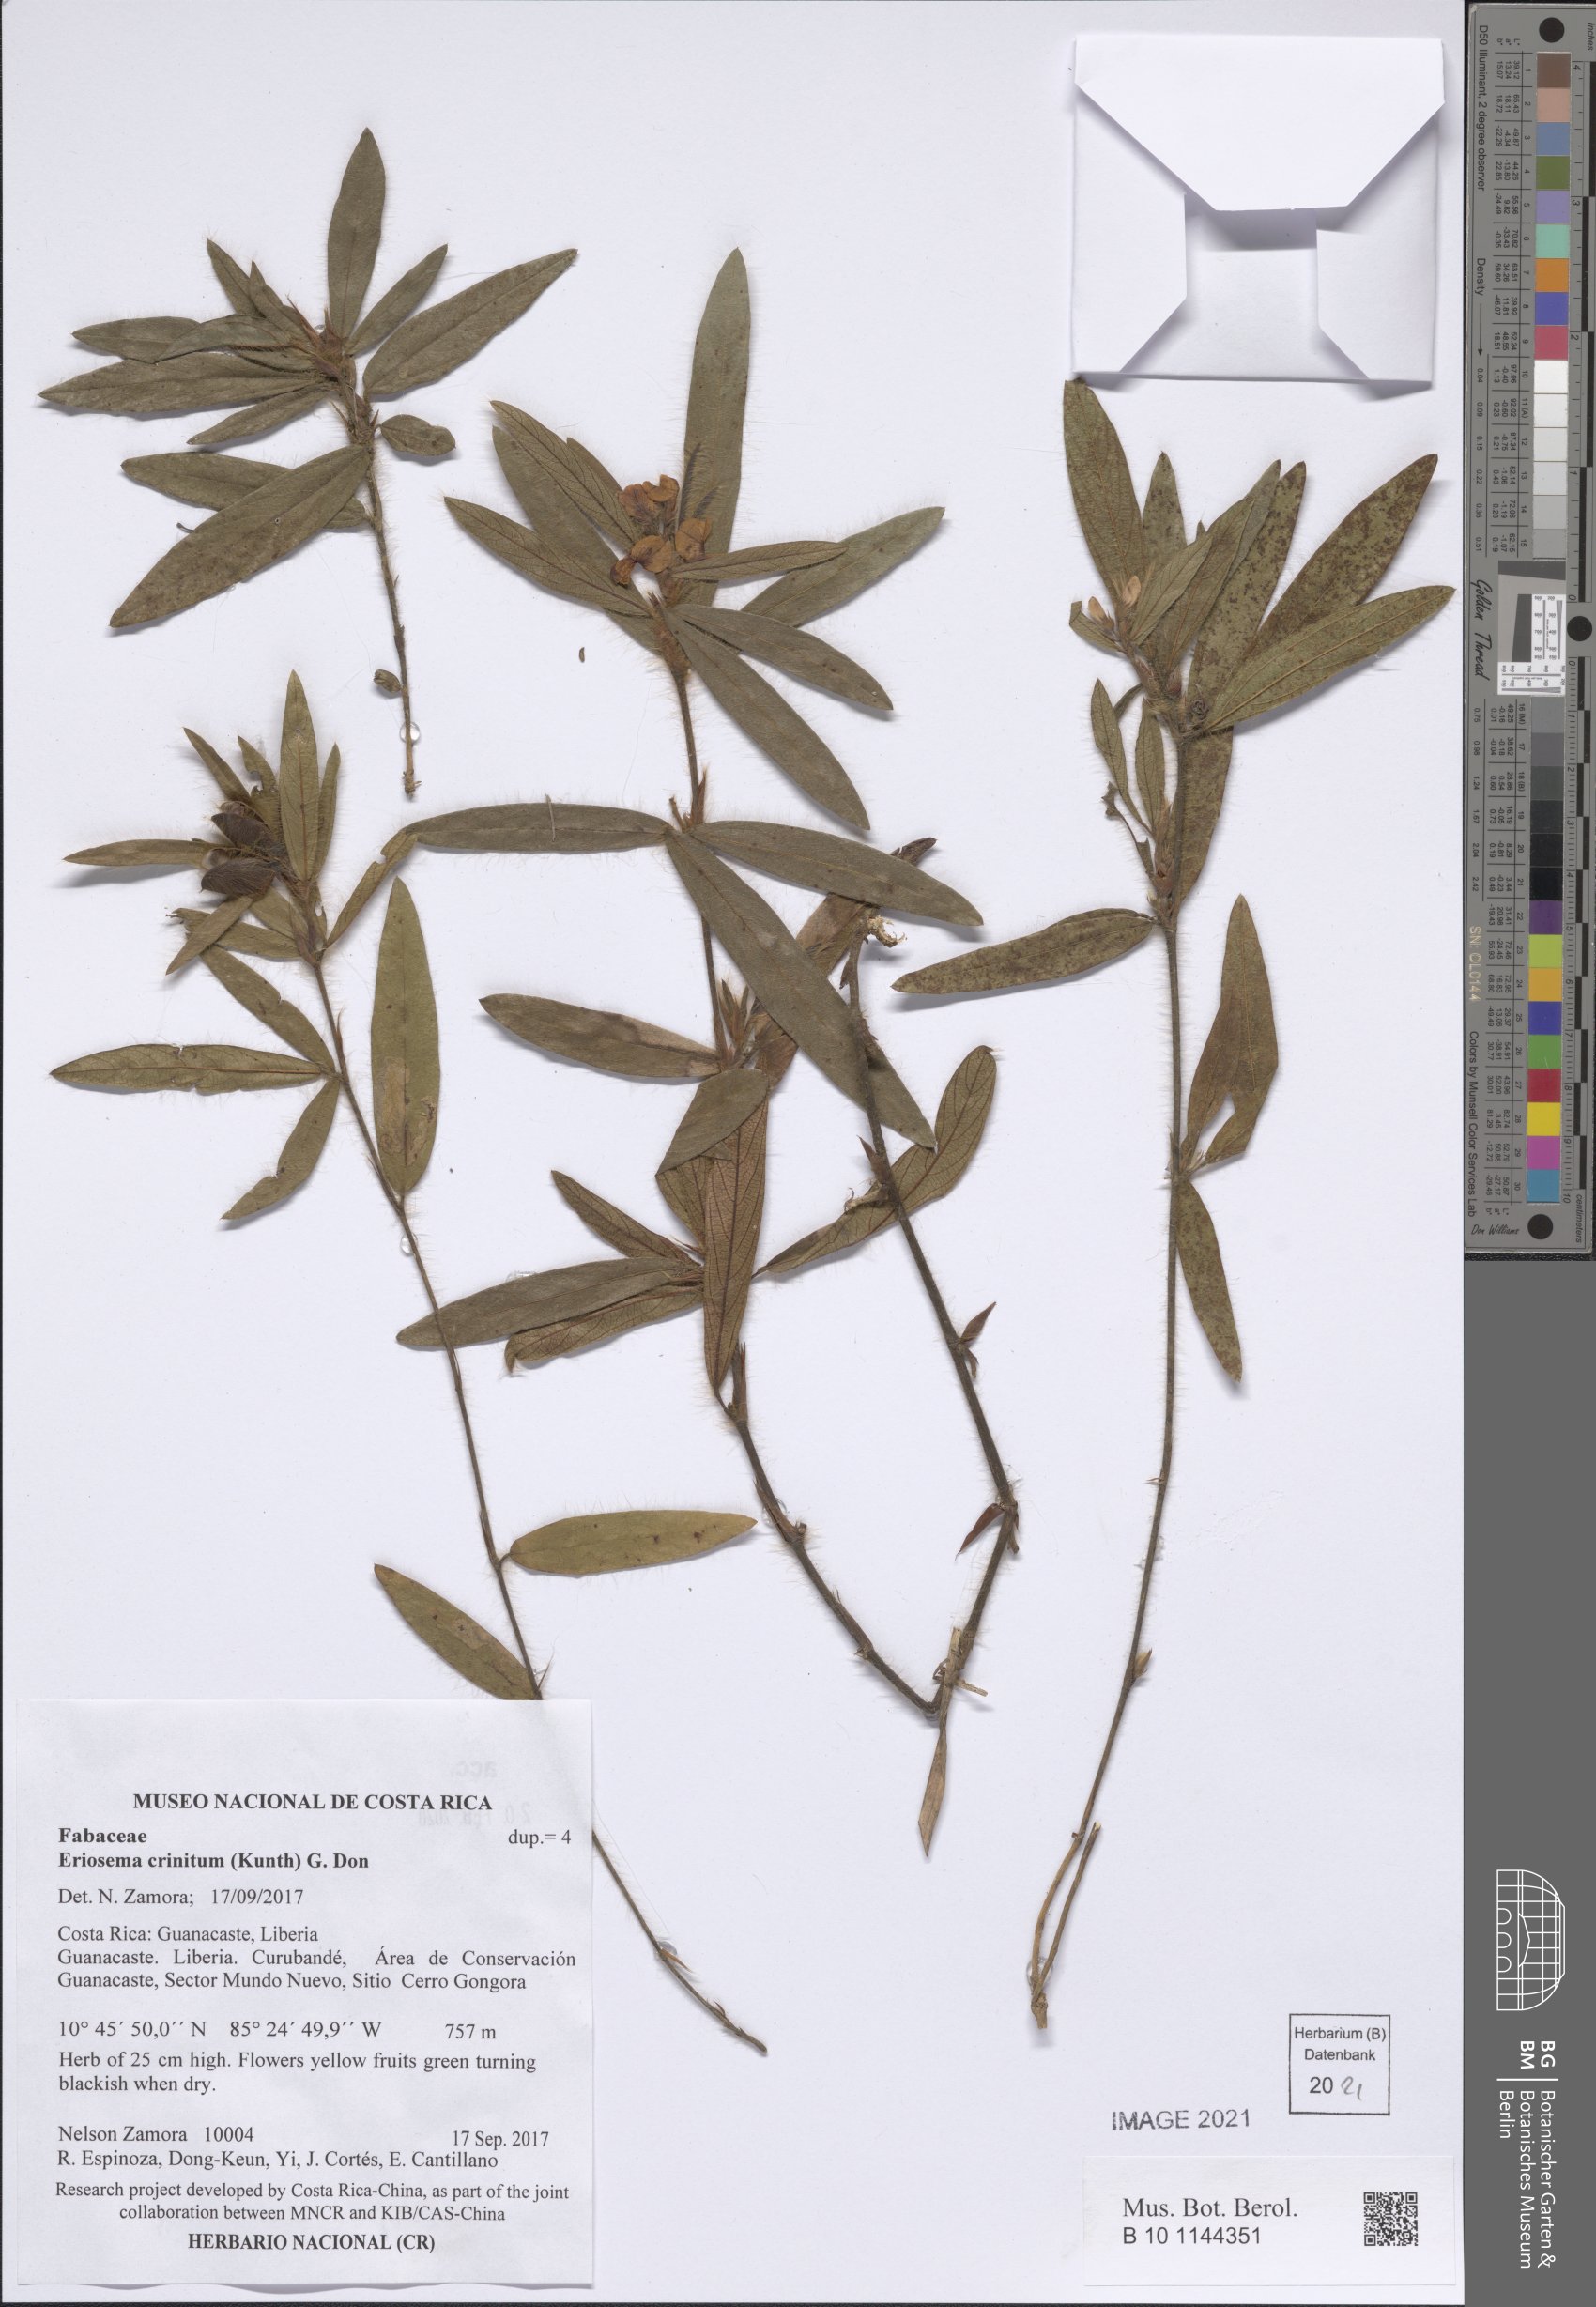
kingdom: Plantae
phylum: Tracheophyta
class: Magnoliopsida
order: Fabales
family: Fabaceae
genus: Eriosema
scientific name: Eriosema crinitum
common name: Sand pea
